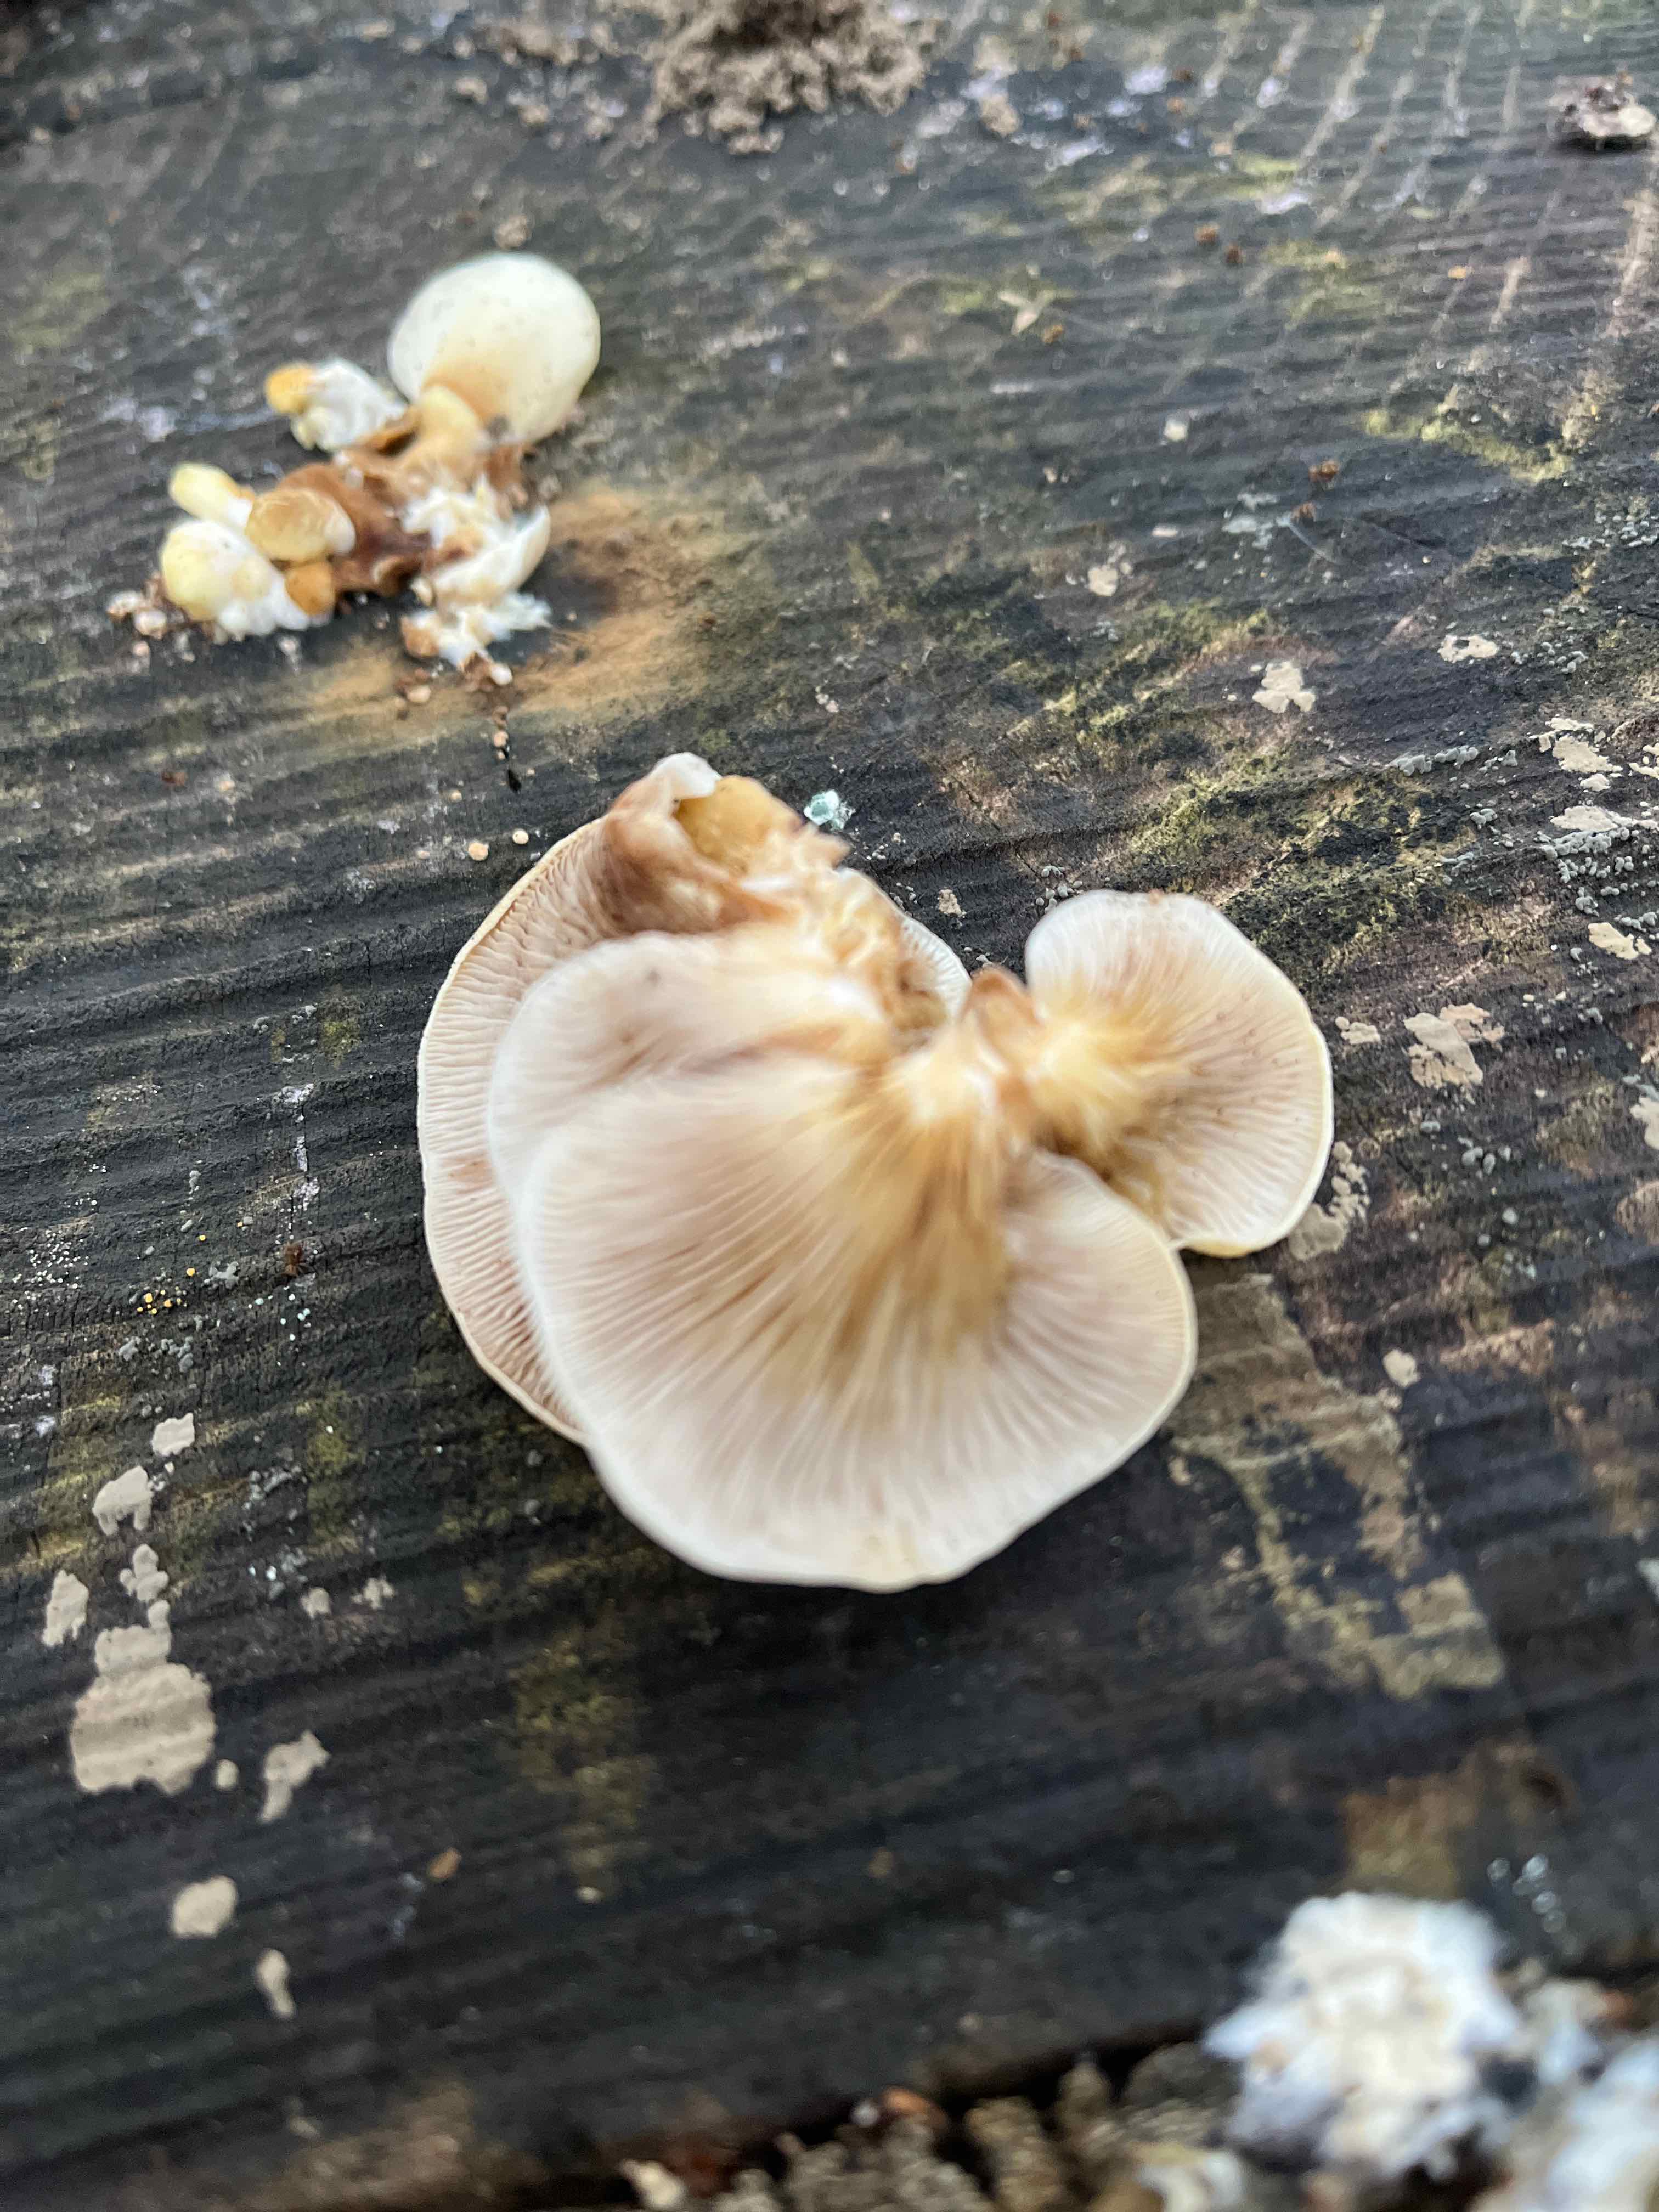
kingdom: Fungi
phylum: Basidiomycota
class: Agaricomycetes
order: Agaricales
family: Sarcomyxaceae
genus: Sarcomyxa
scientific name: Sarcomyxa serotina
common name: gummihat
